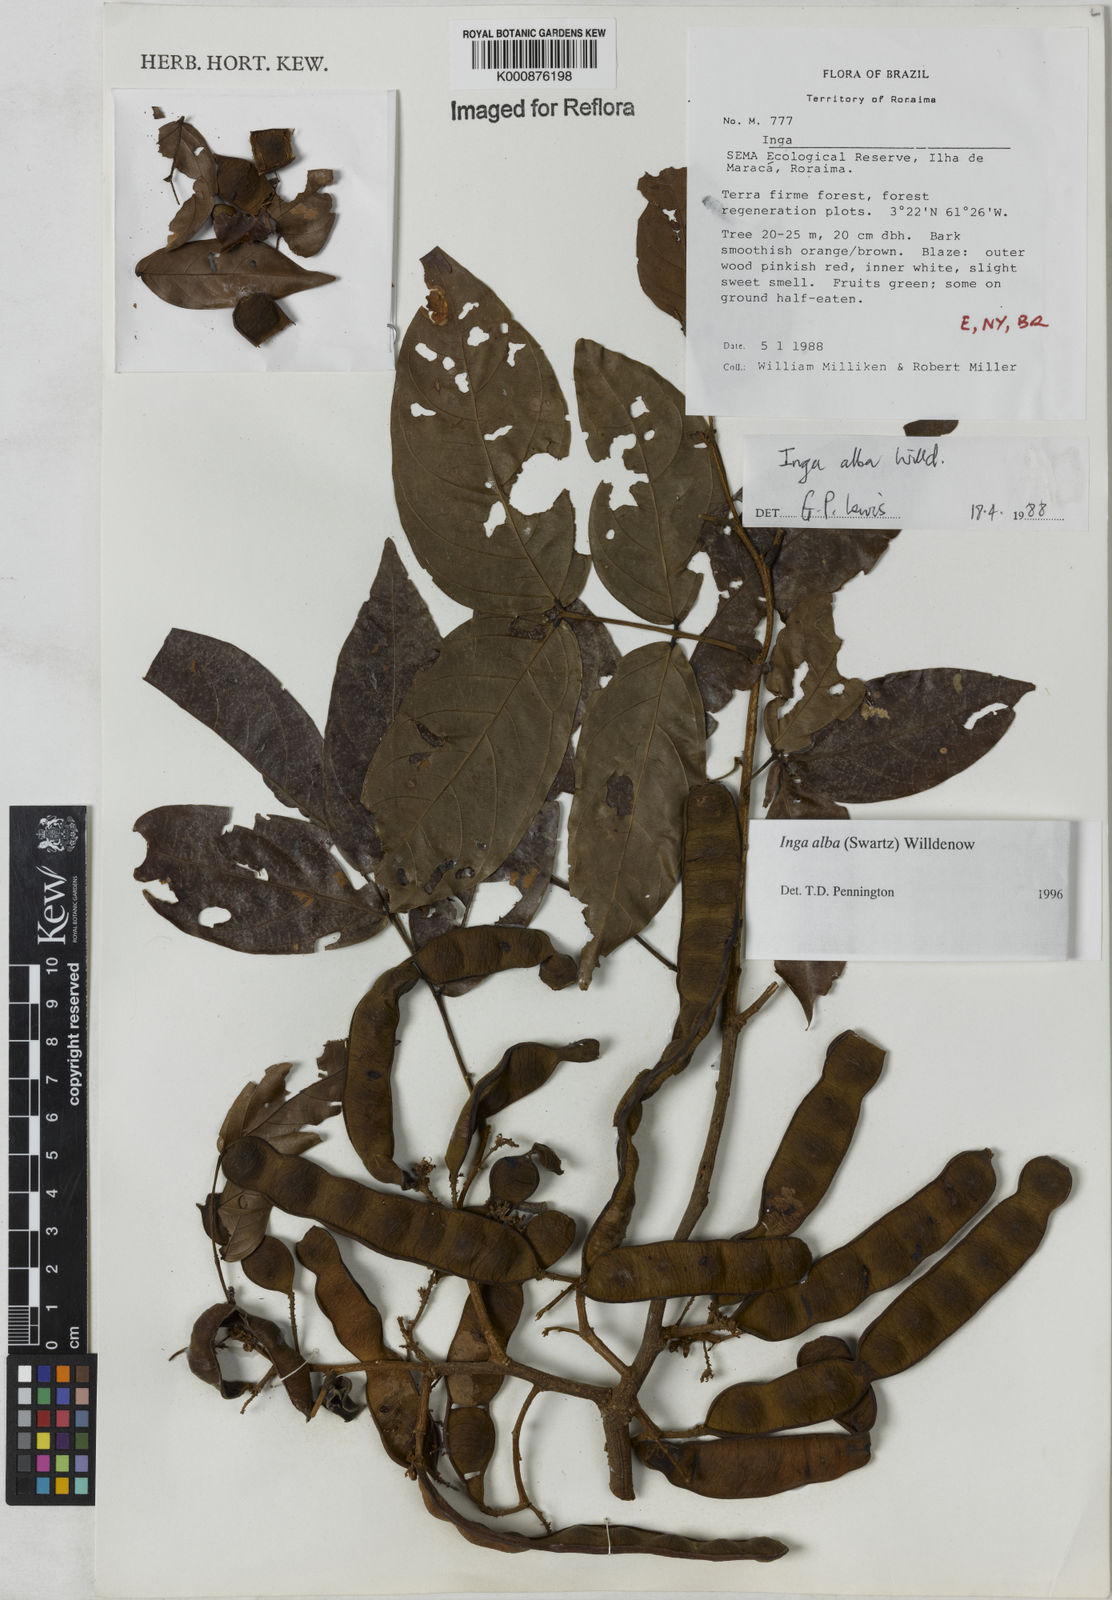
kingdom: Plantae
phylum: Tracheophyta
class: Magnoliopsida
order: Fabales
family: Fabaceae
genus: Inga
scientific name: Inga alba
